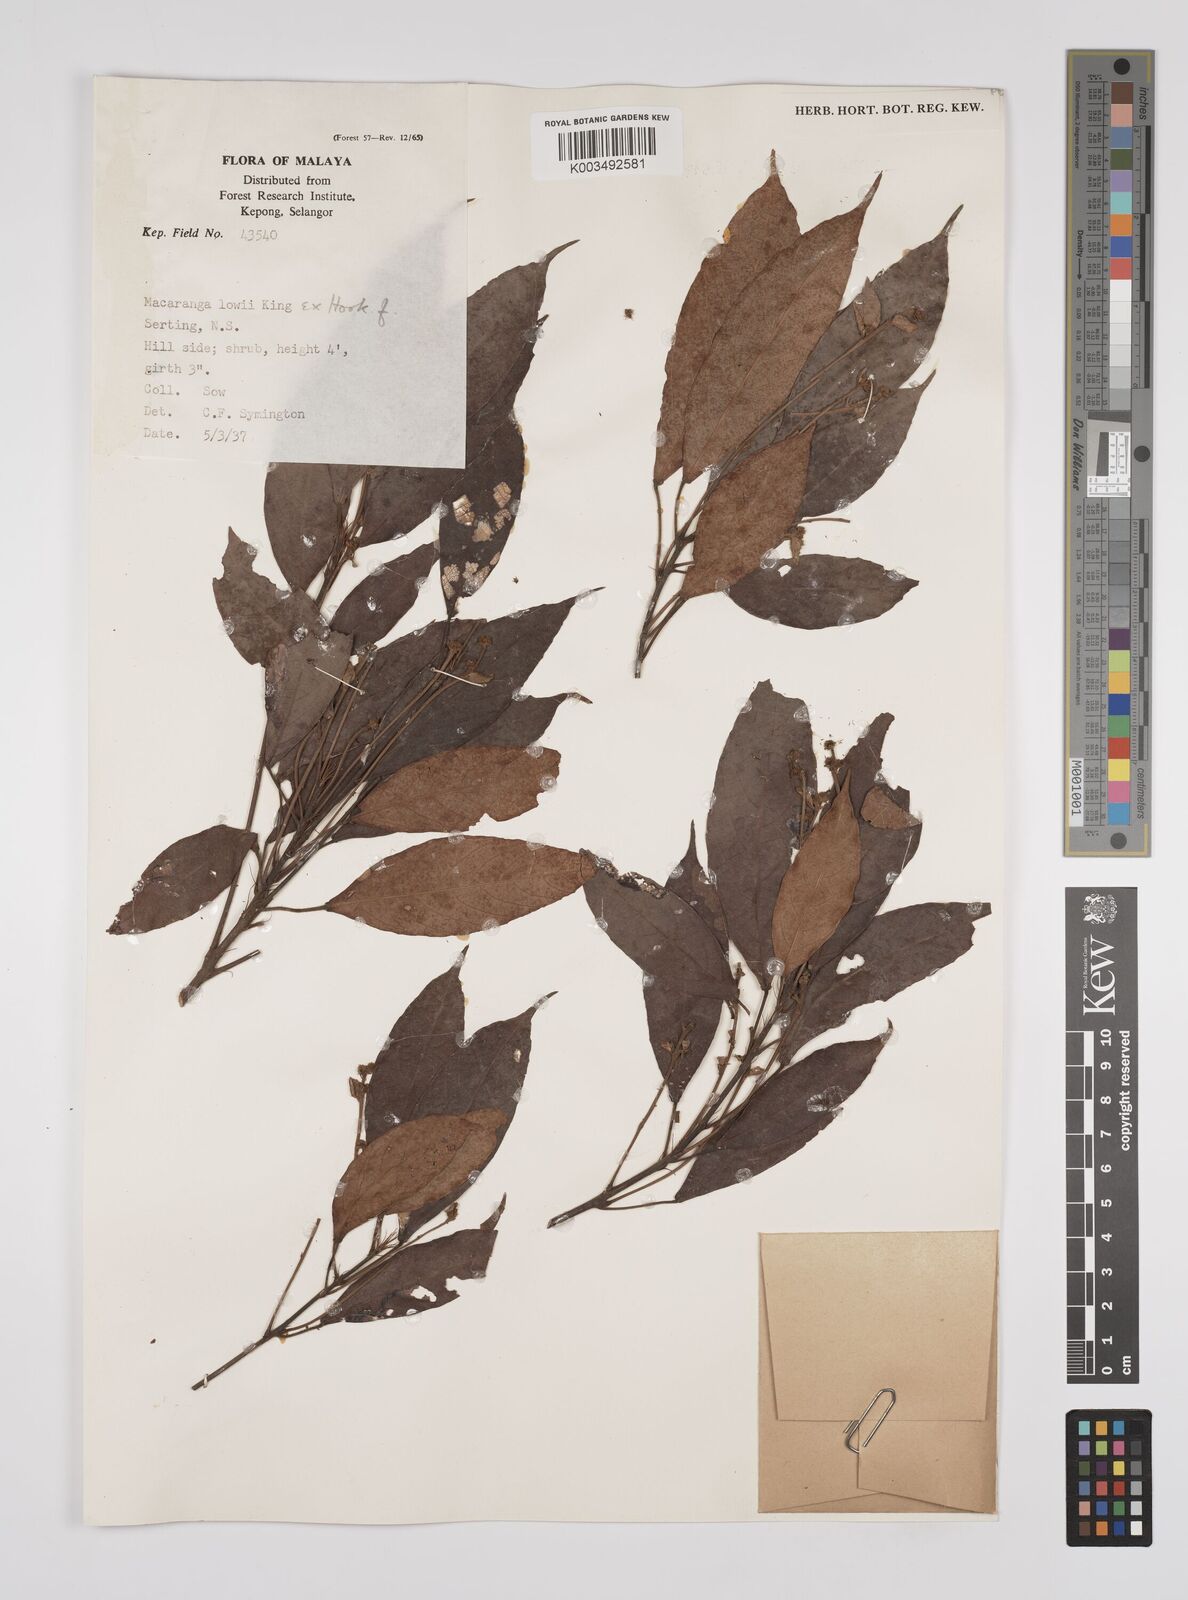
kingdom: Plantae
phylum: Tracheophyta
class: Magnoliopsida
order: Malpighiales
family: Euphorbiaceae
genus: Macaranga
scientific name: Macaranga lowii
